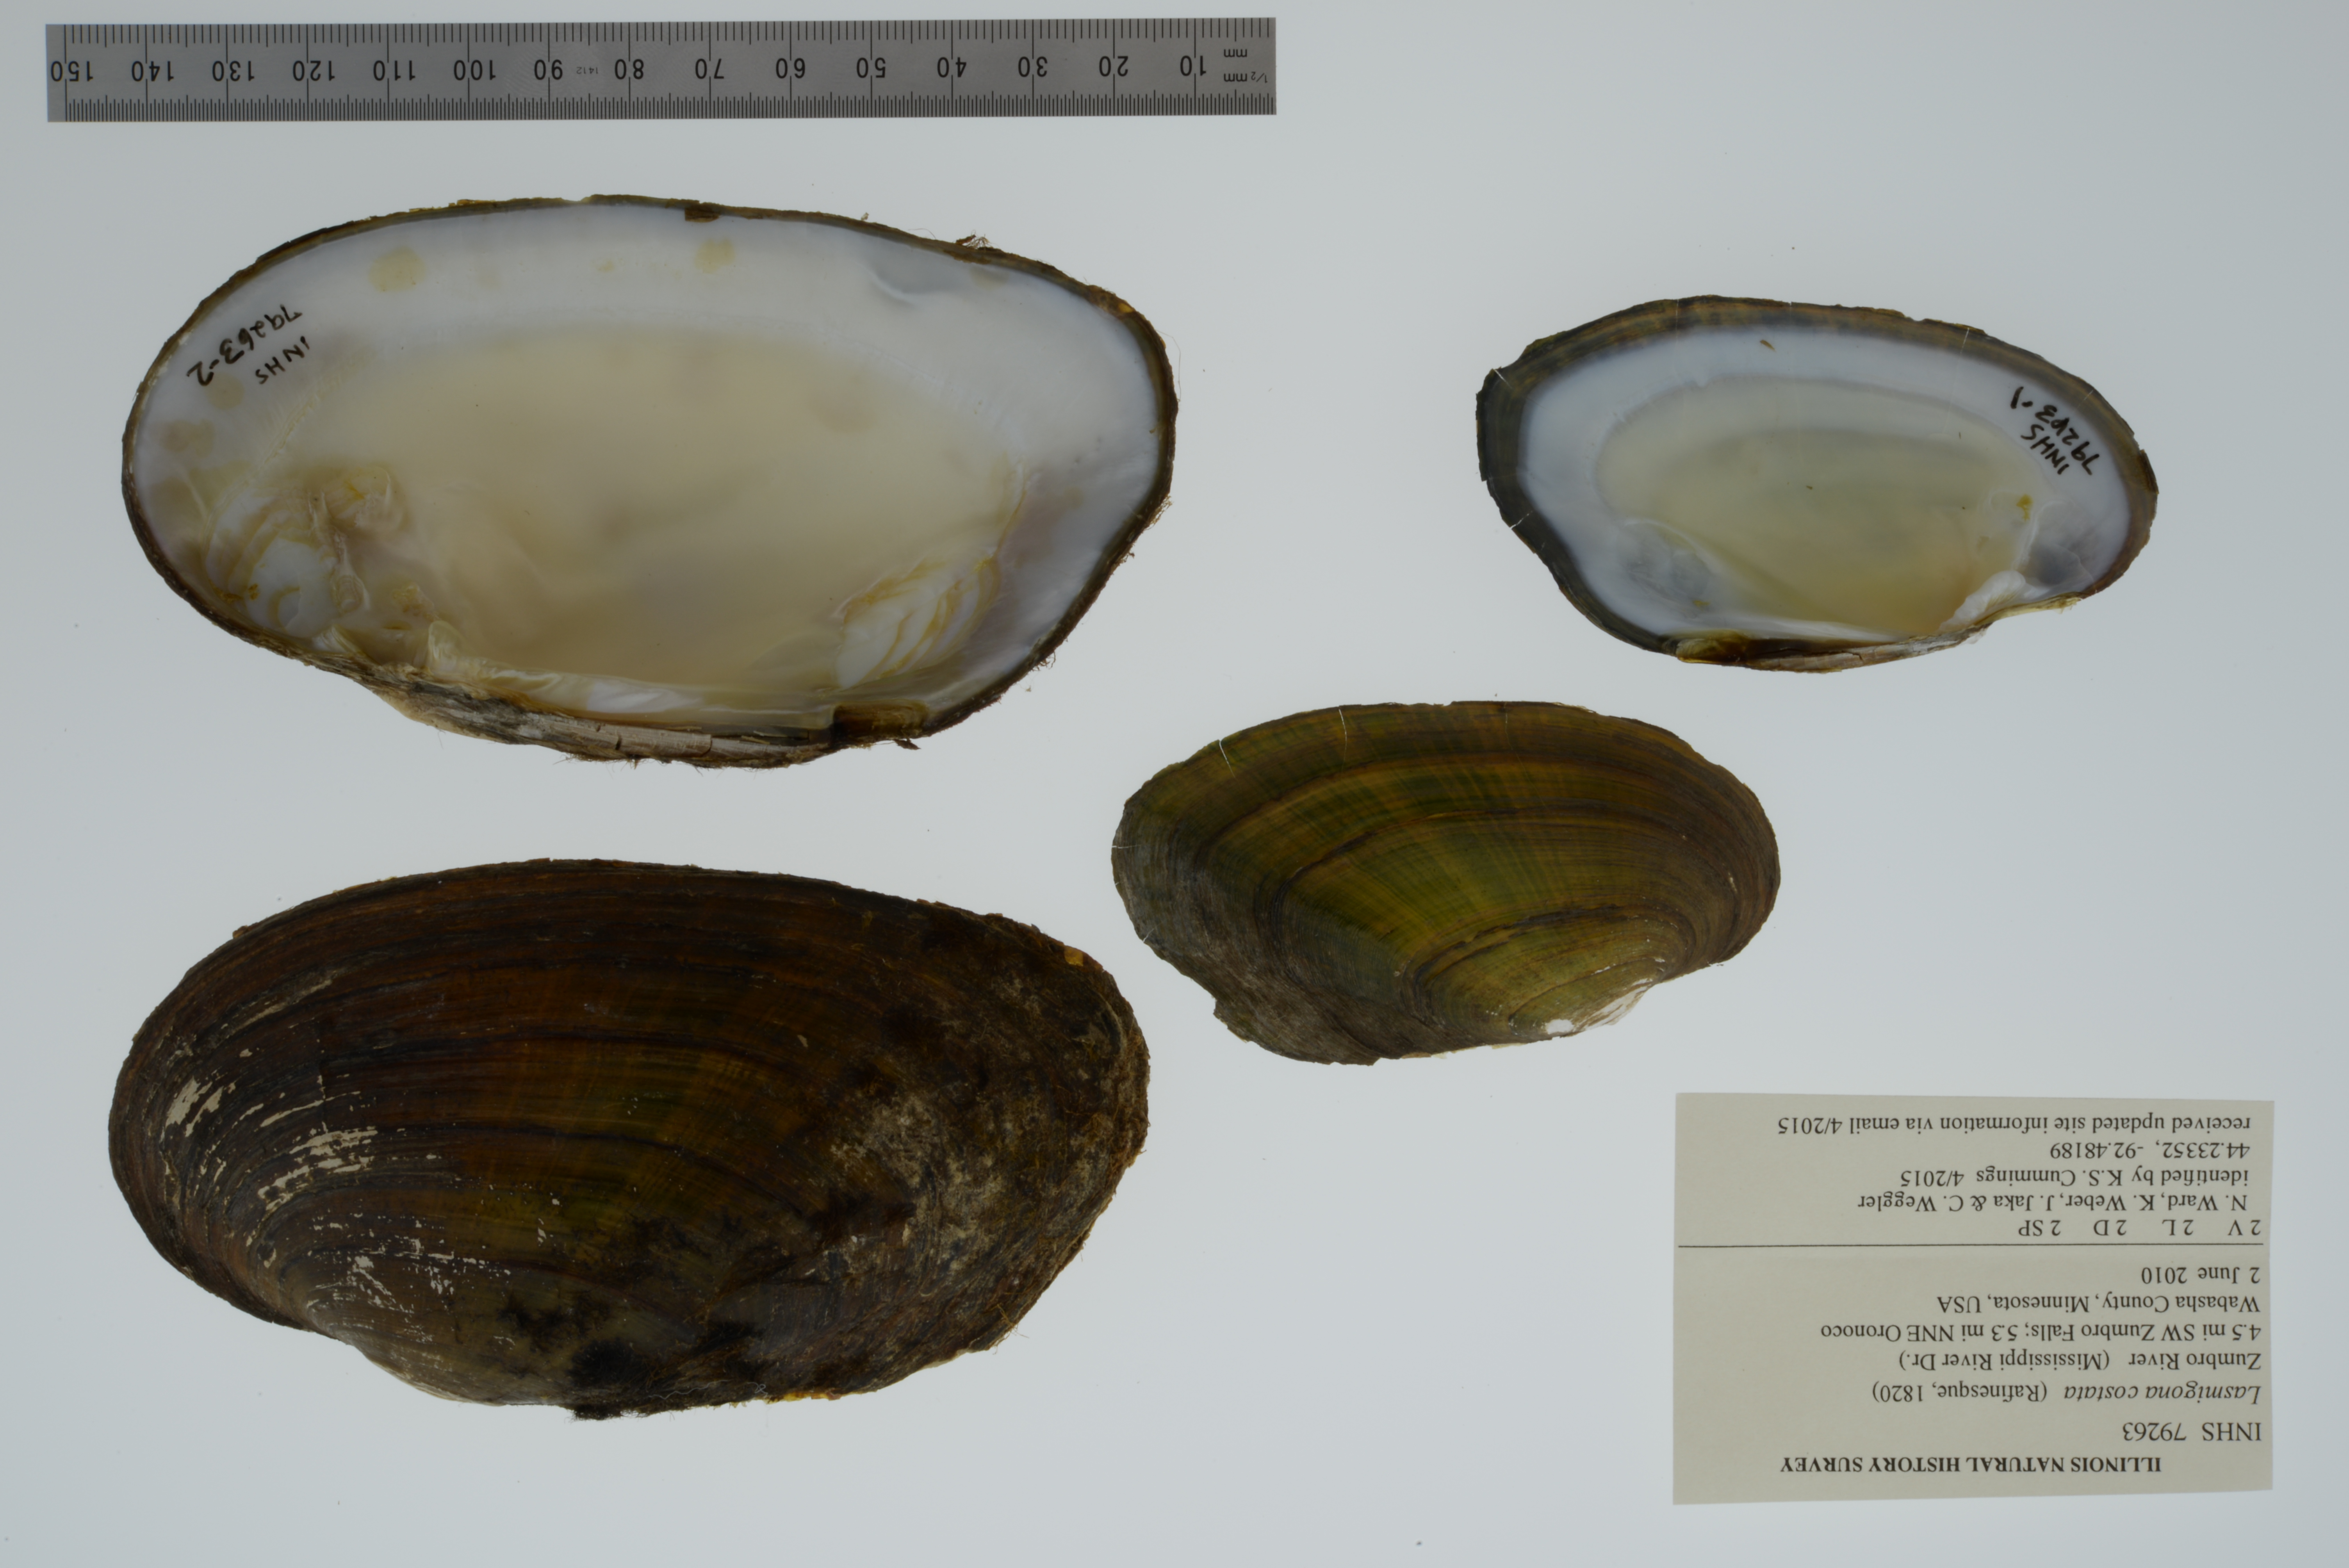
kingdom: Animalia
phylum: Mollusca
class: Bivalvia
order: Unionida
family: Unionidae
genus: Lasmigona
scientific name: Lasmigona costata
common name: Flutedshell
